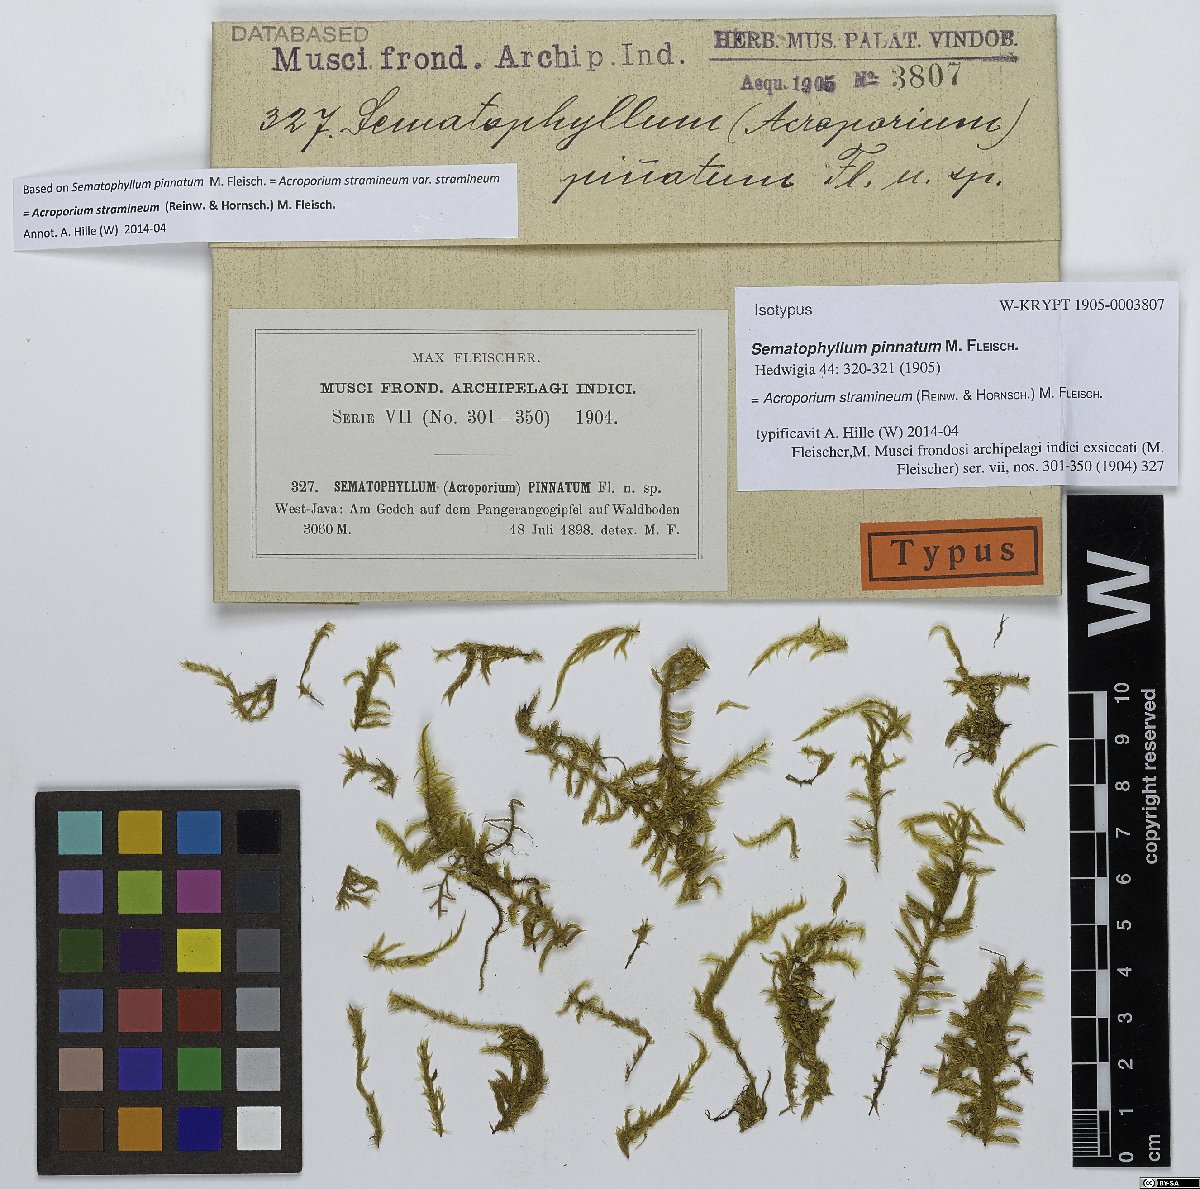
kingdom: Plantae
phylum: Bryophyta
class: Bryopsida
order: Hypnales
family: Sematophyllaceae
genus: Acroporium
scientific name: Acroporium warburgii
